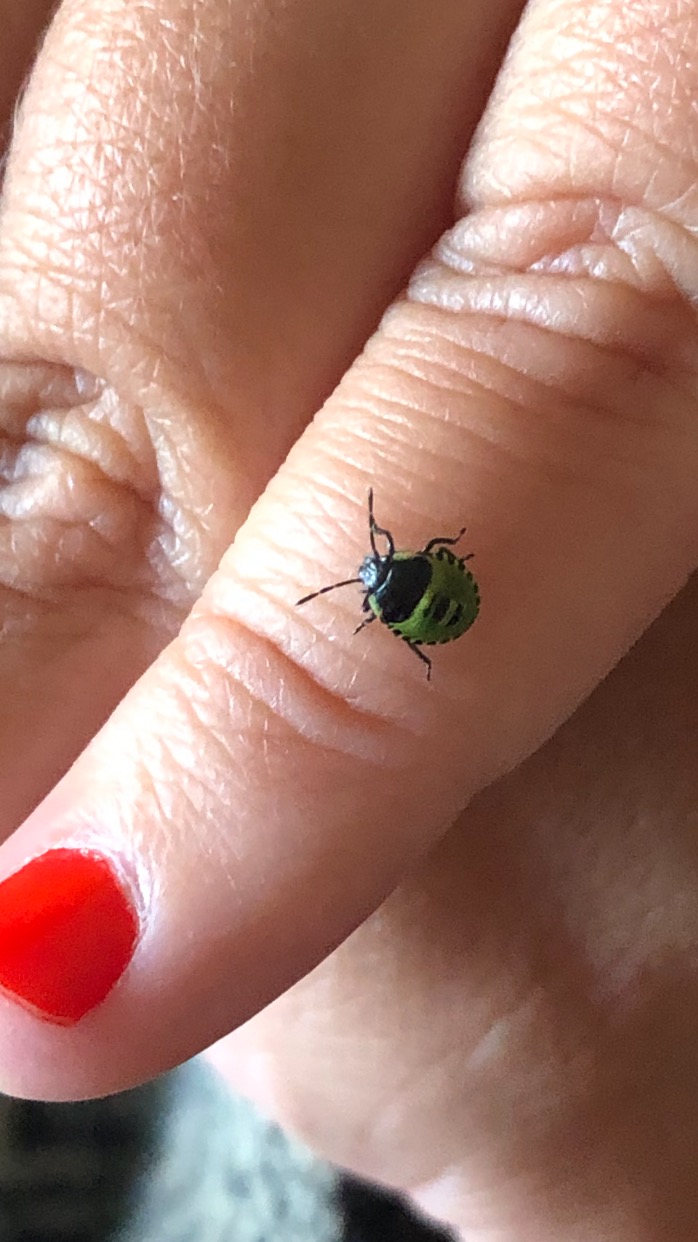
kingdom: Animalia
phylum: Arthropoda
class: Insecta
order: Hemiptera
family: Pentatomidae
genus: Palomena
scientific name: Palomena prasina
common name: Grøn bredtæge
